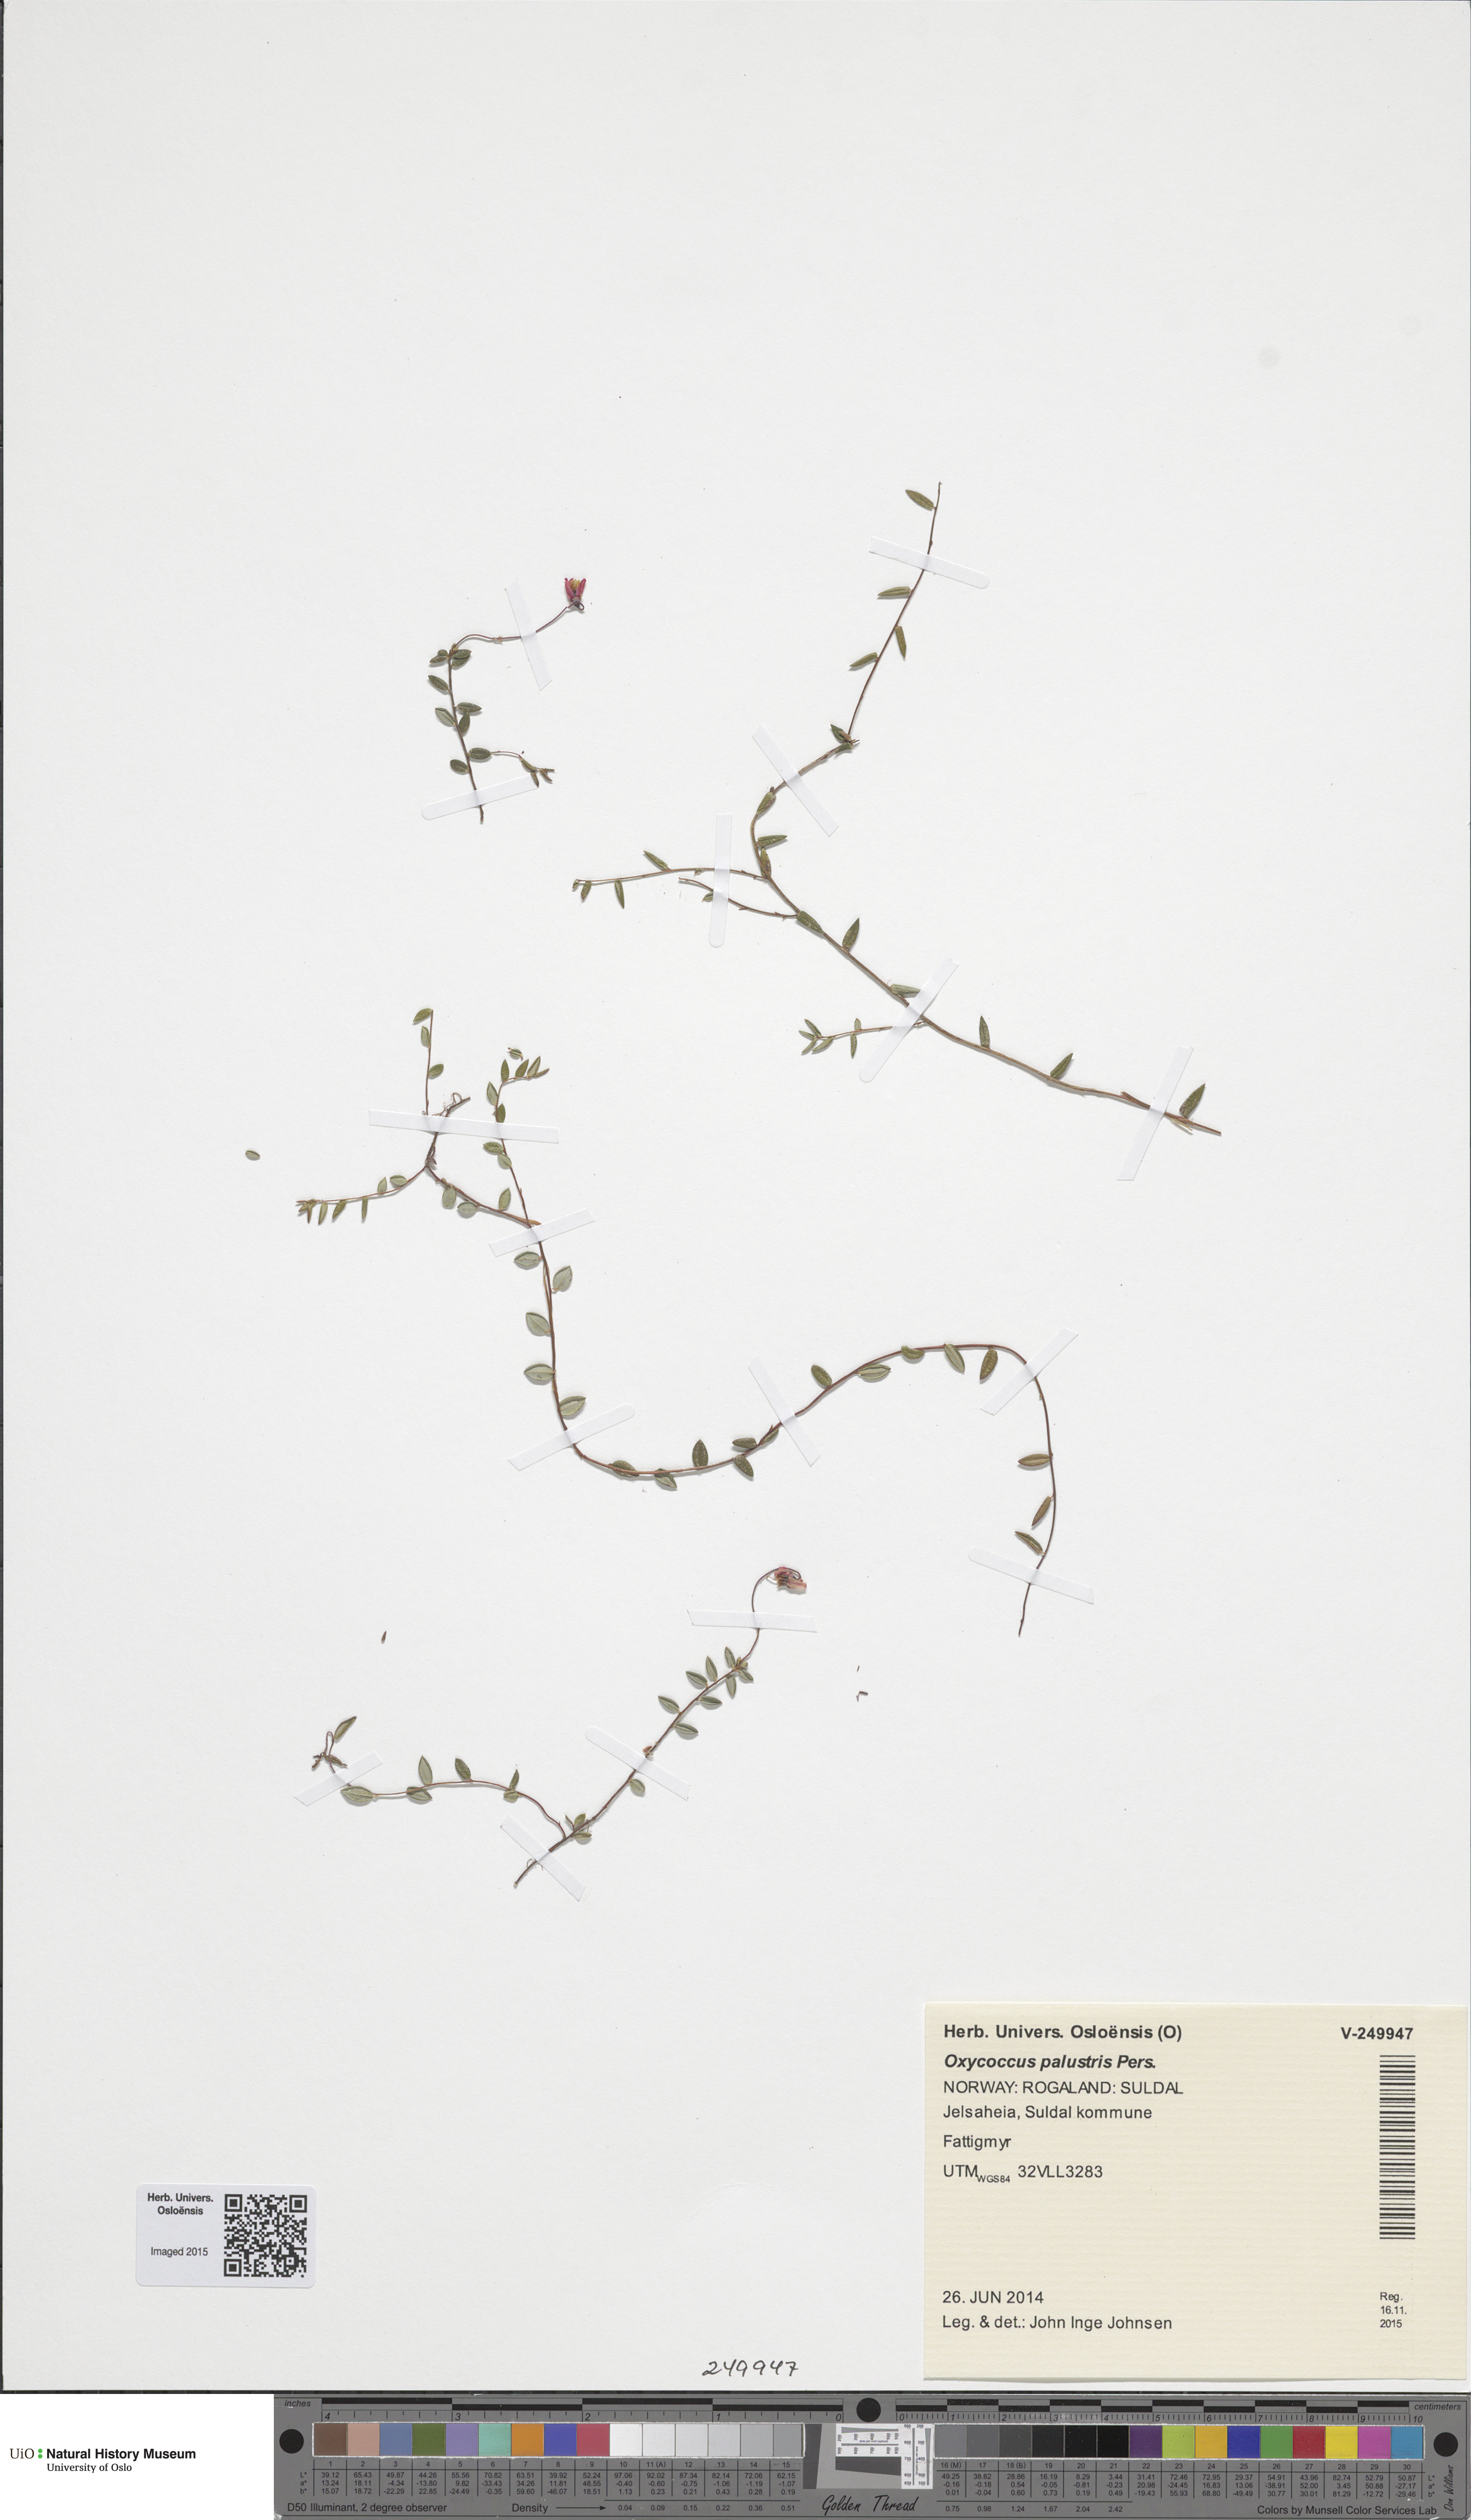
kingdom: Plantae
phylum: Tracheophyta
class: Magnoliopsida
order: Ericales
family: Ericaceae
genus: Vaccinium
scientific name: Vaccinium oxycoccos
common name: Cranberry
